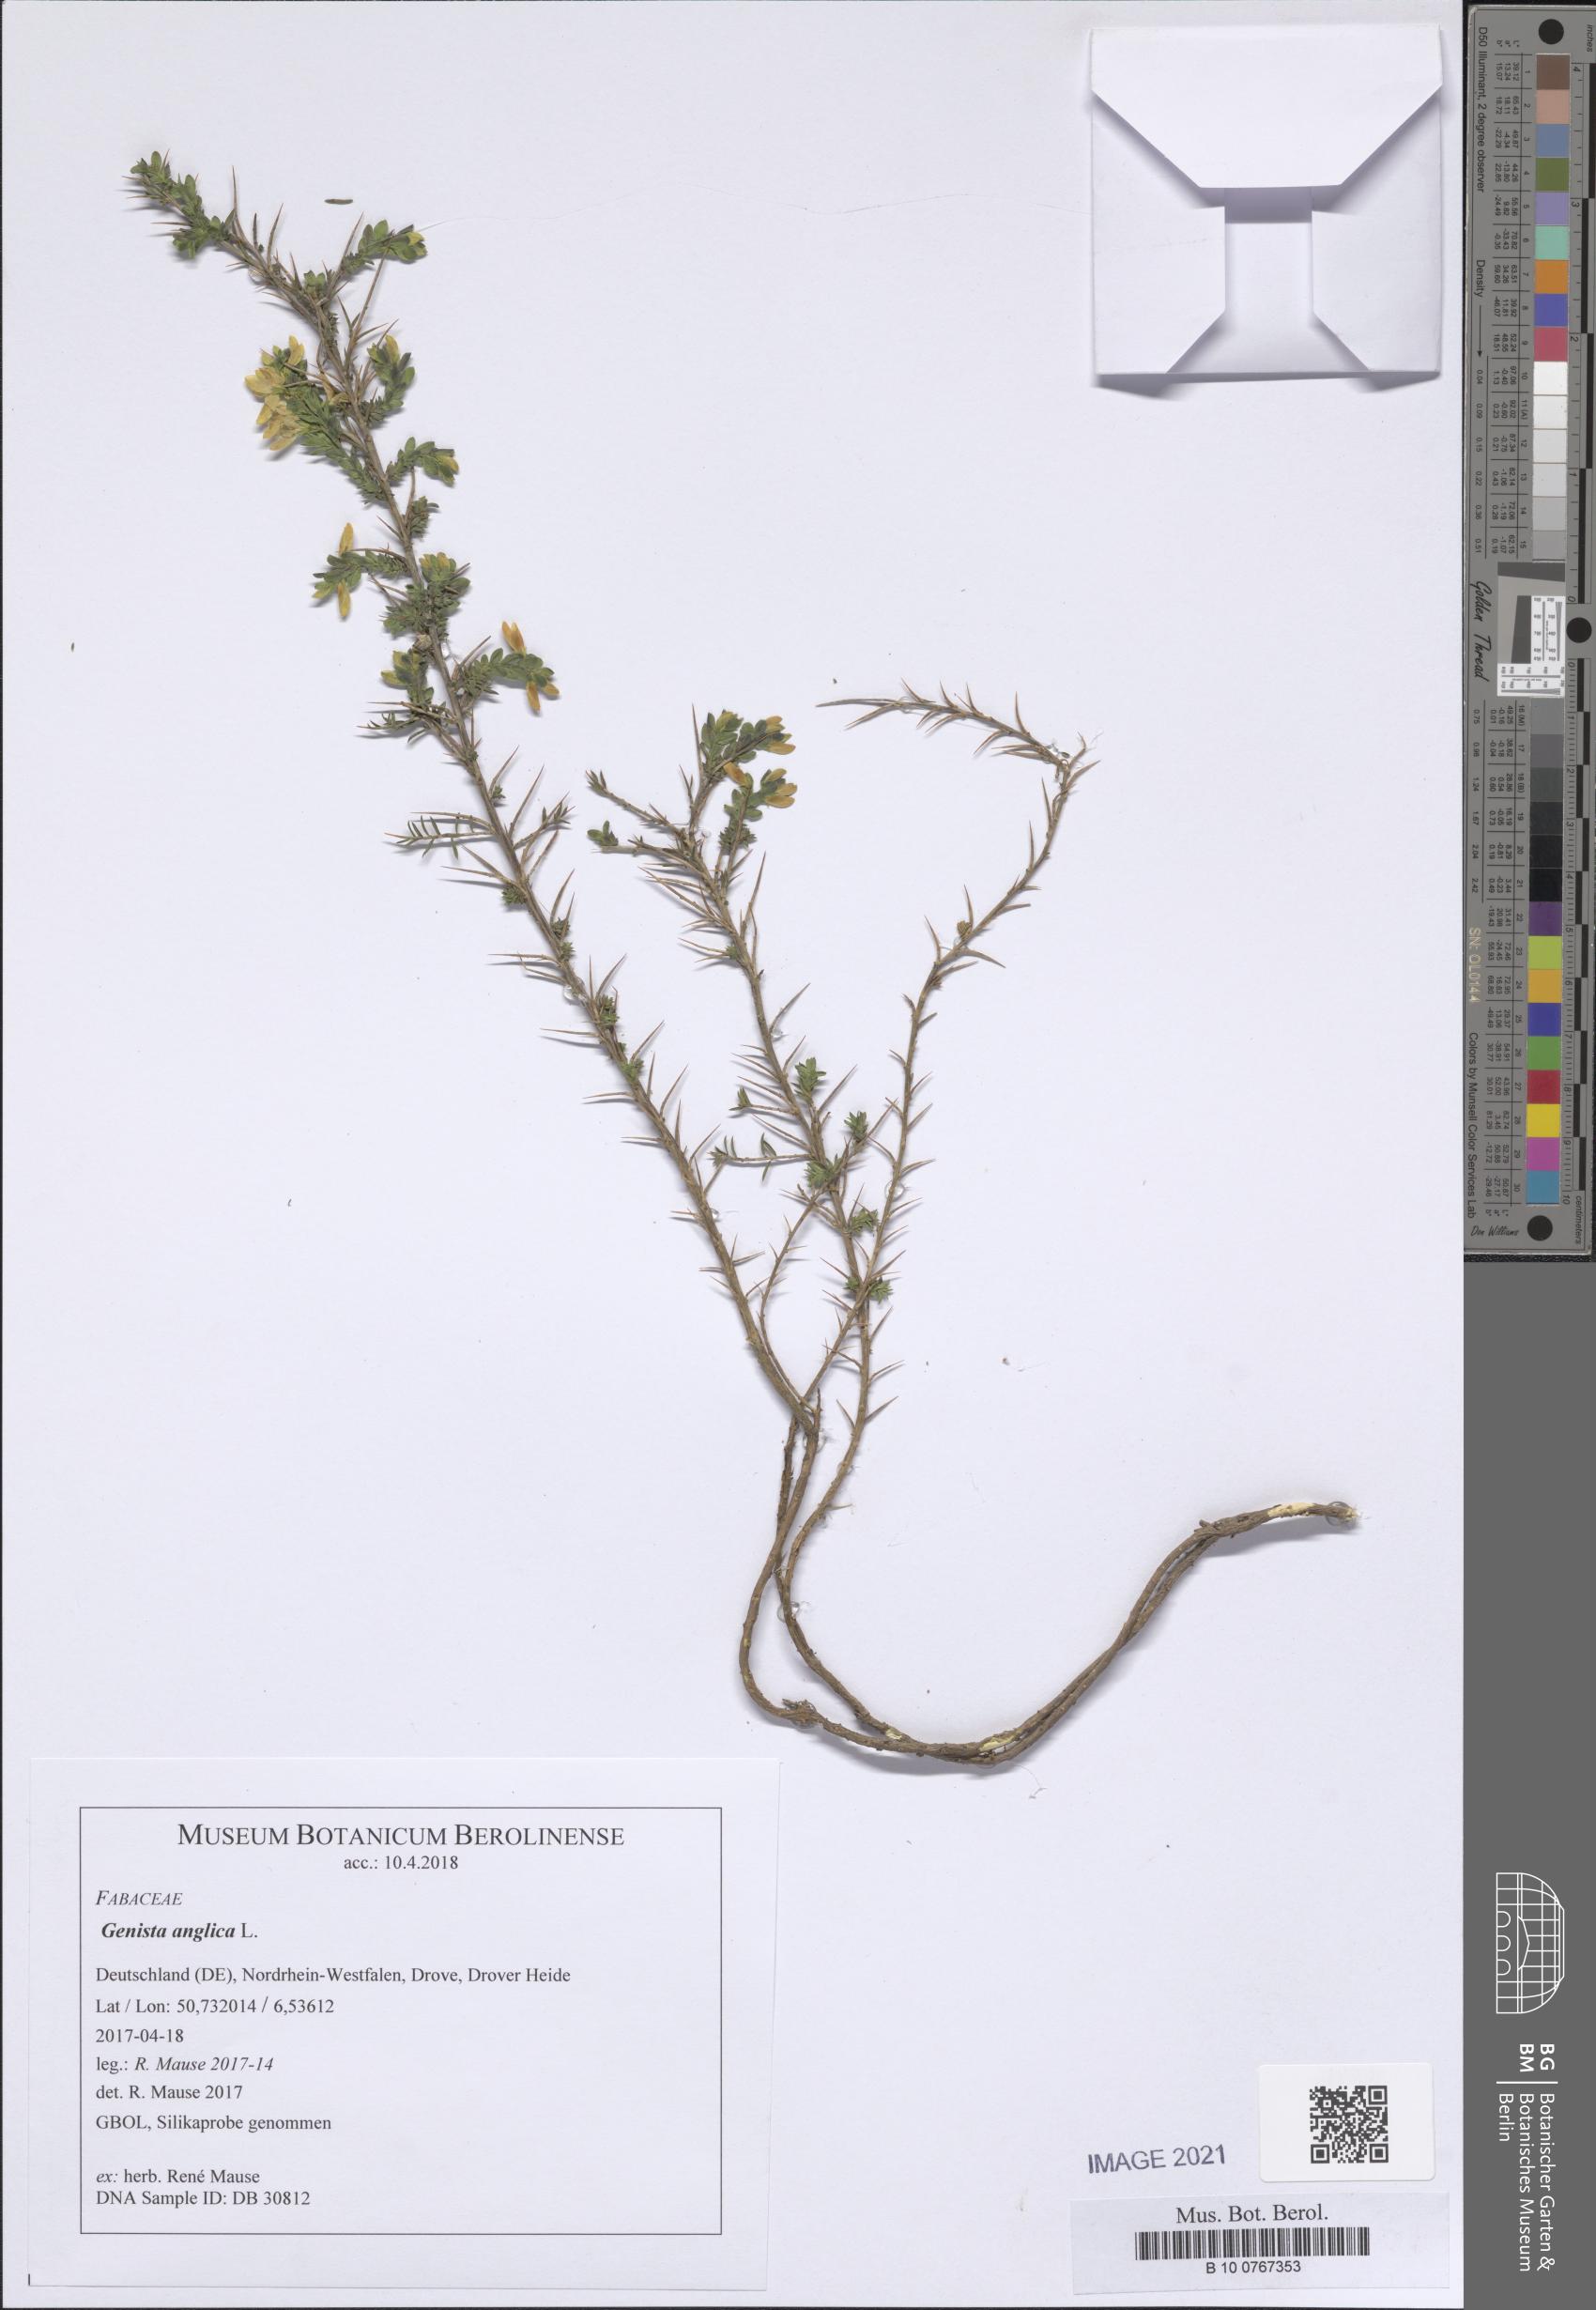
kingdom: Plantae
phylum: Tracheophyta
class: Magnoliopsida
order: Fabales
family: Fabaceae
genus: Genista
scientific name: Genista anglica
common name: Petty whin
